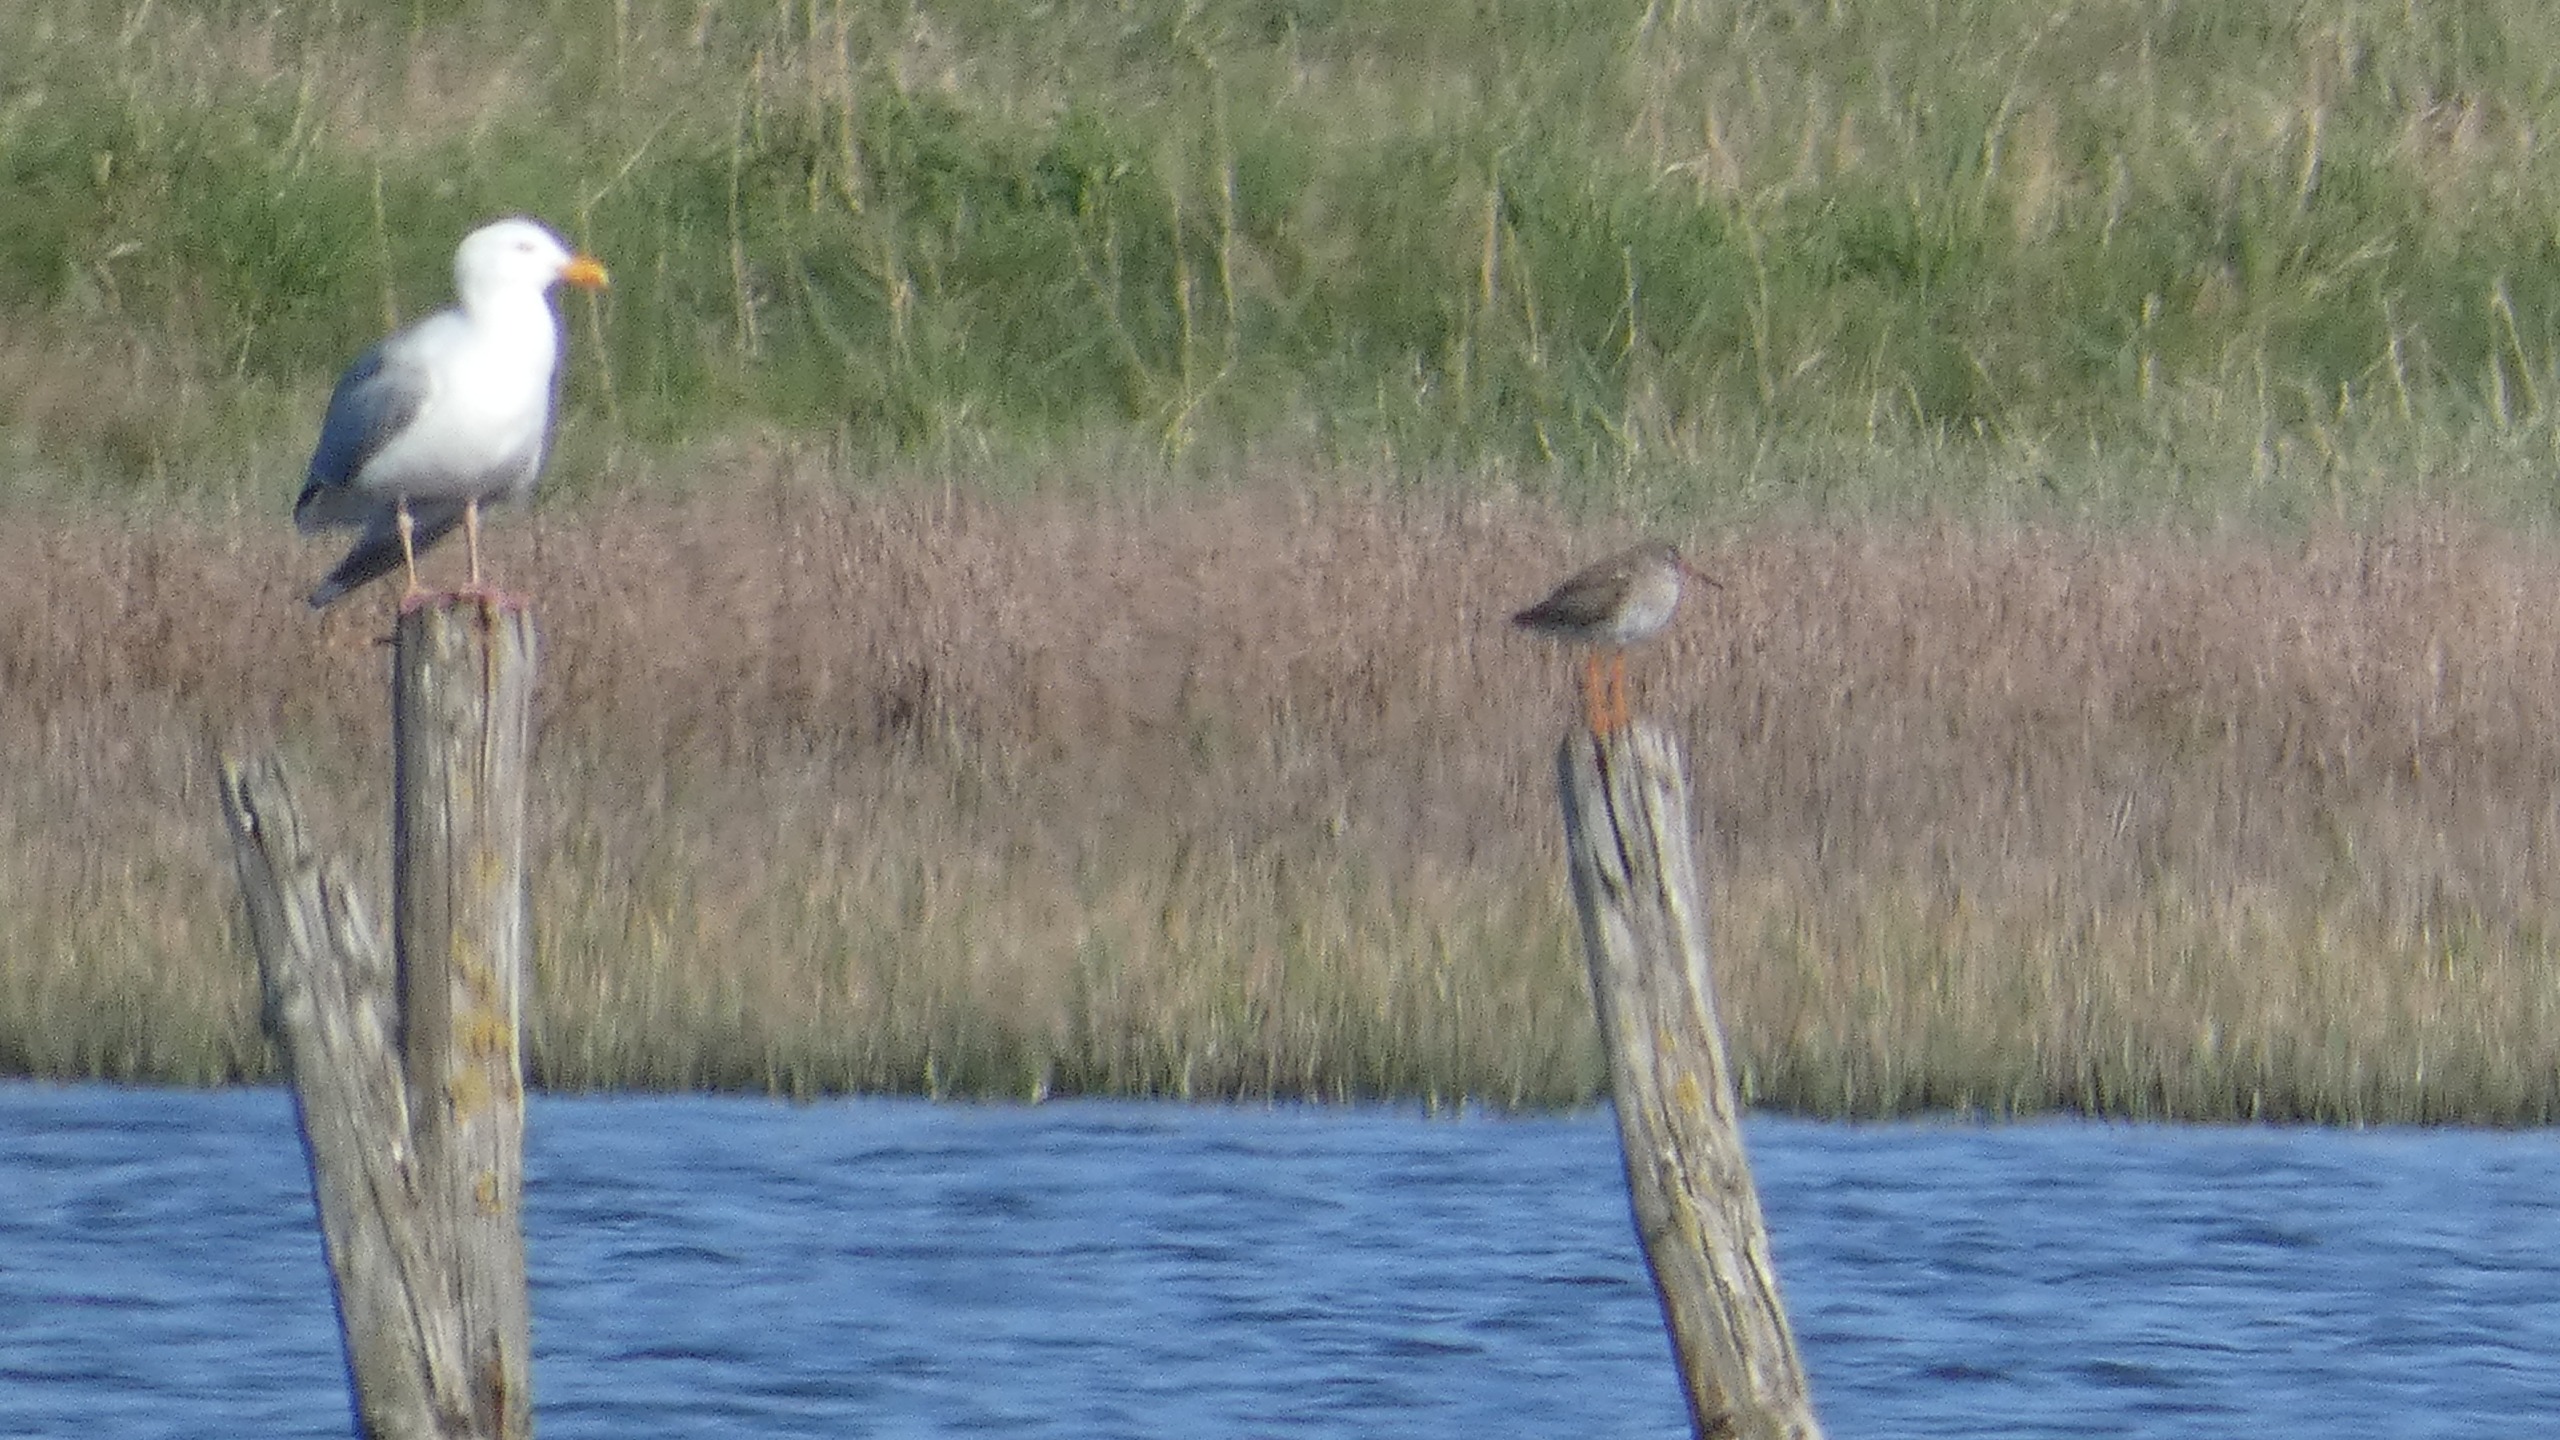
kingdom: Animalia
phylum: Chordata
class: Aves
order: Charadriiformes
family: Laridae
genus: Larus
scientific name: Larus argentatus
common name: Sølvmåge
